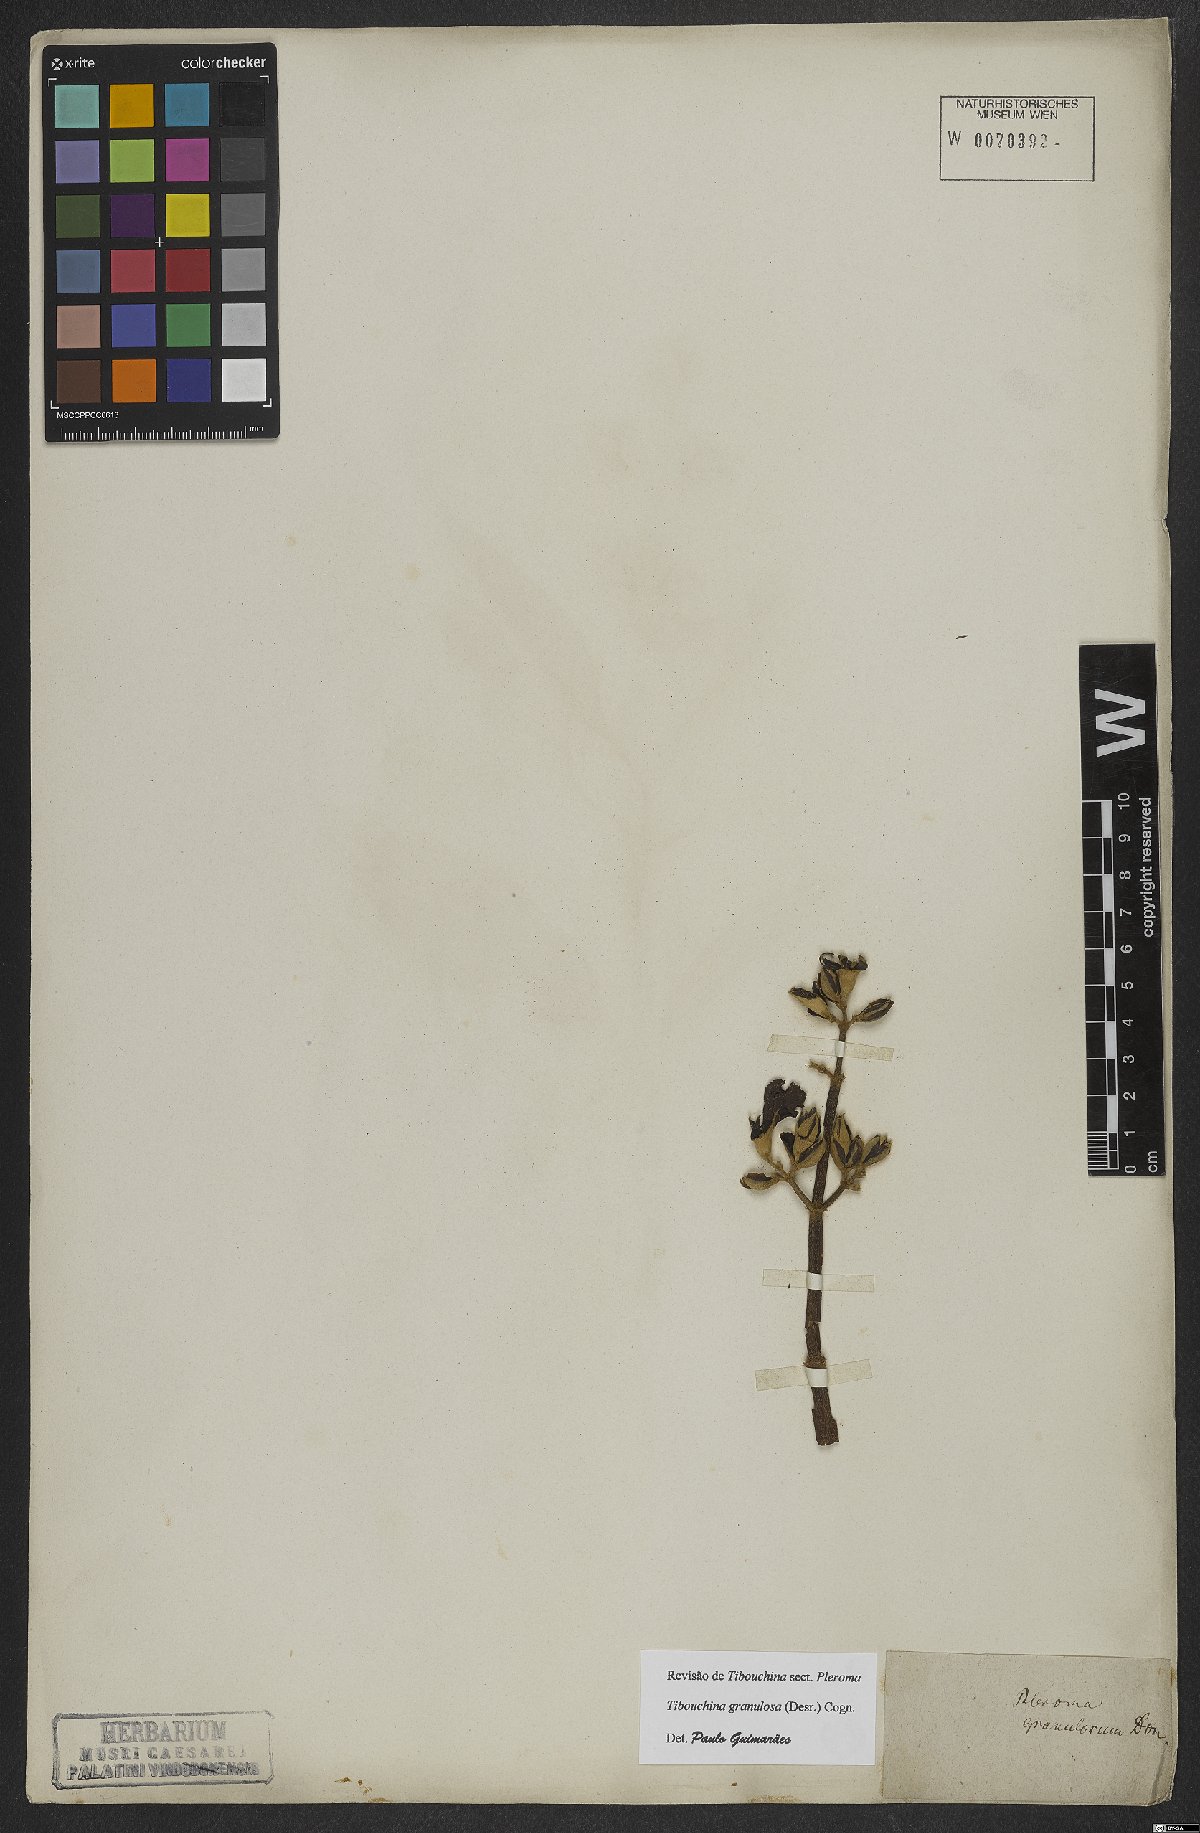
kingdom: Plantae
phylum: Tracheophyta
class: Magnoliopsida
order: Myrtales
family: Melastomataceae
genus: Pleroma
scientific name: Pleroma granulosum
